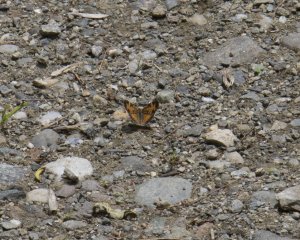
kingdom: Animalia
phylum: Arthropoda
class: Insecta
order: Lepidoptera
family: Nymphalidae
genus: Phyciodes
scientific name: Phyciodes tharos
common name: Northern Crescent
